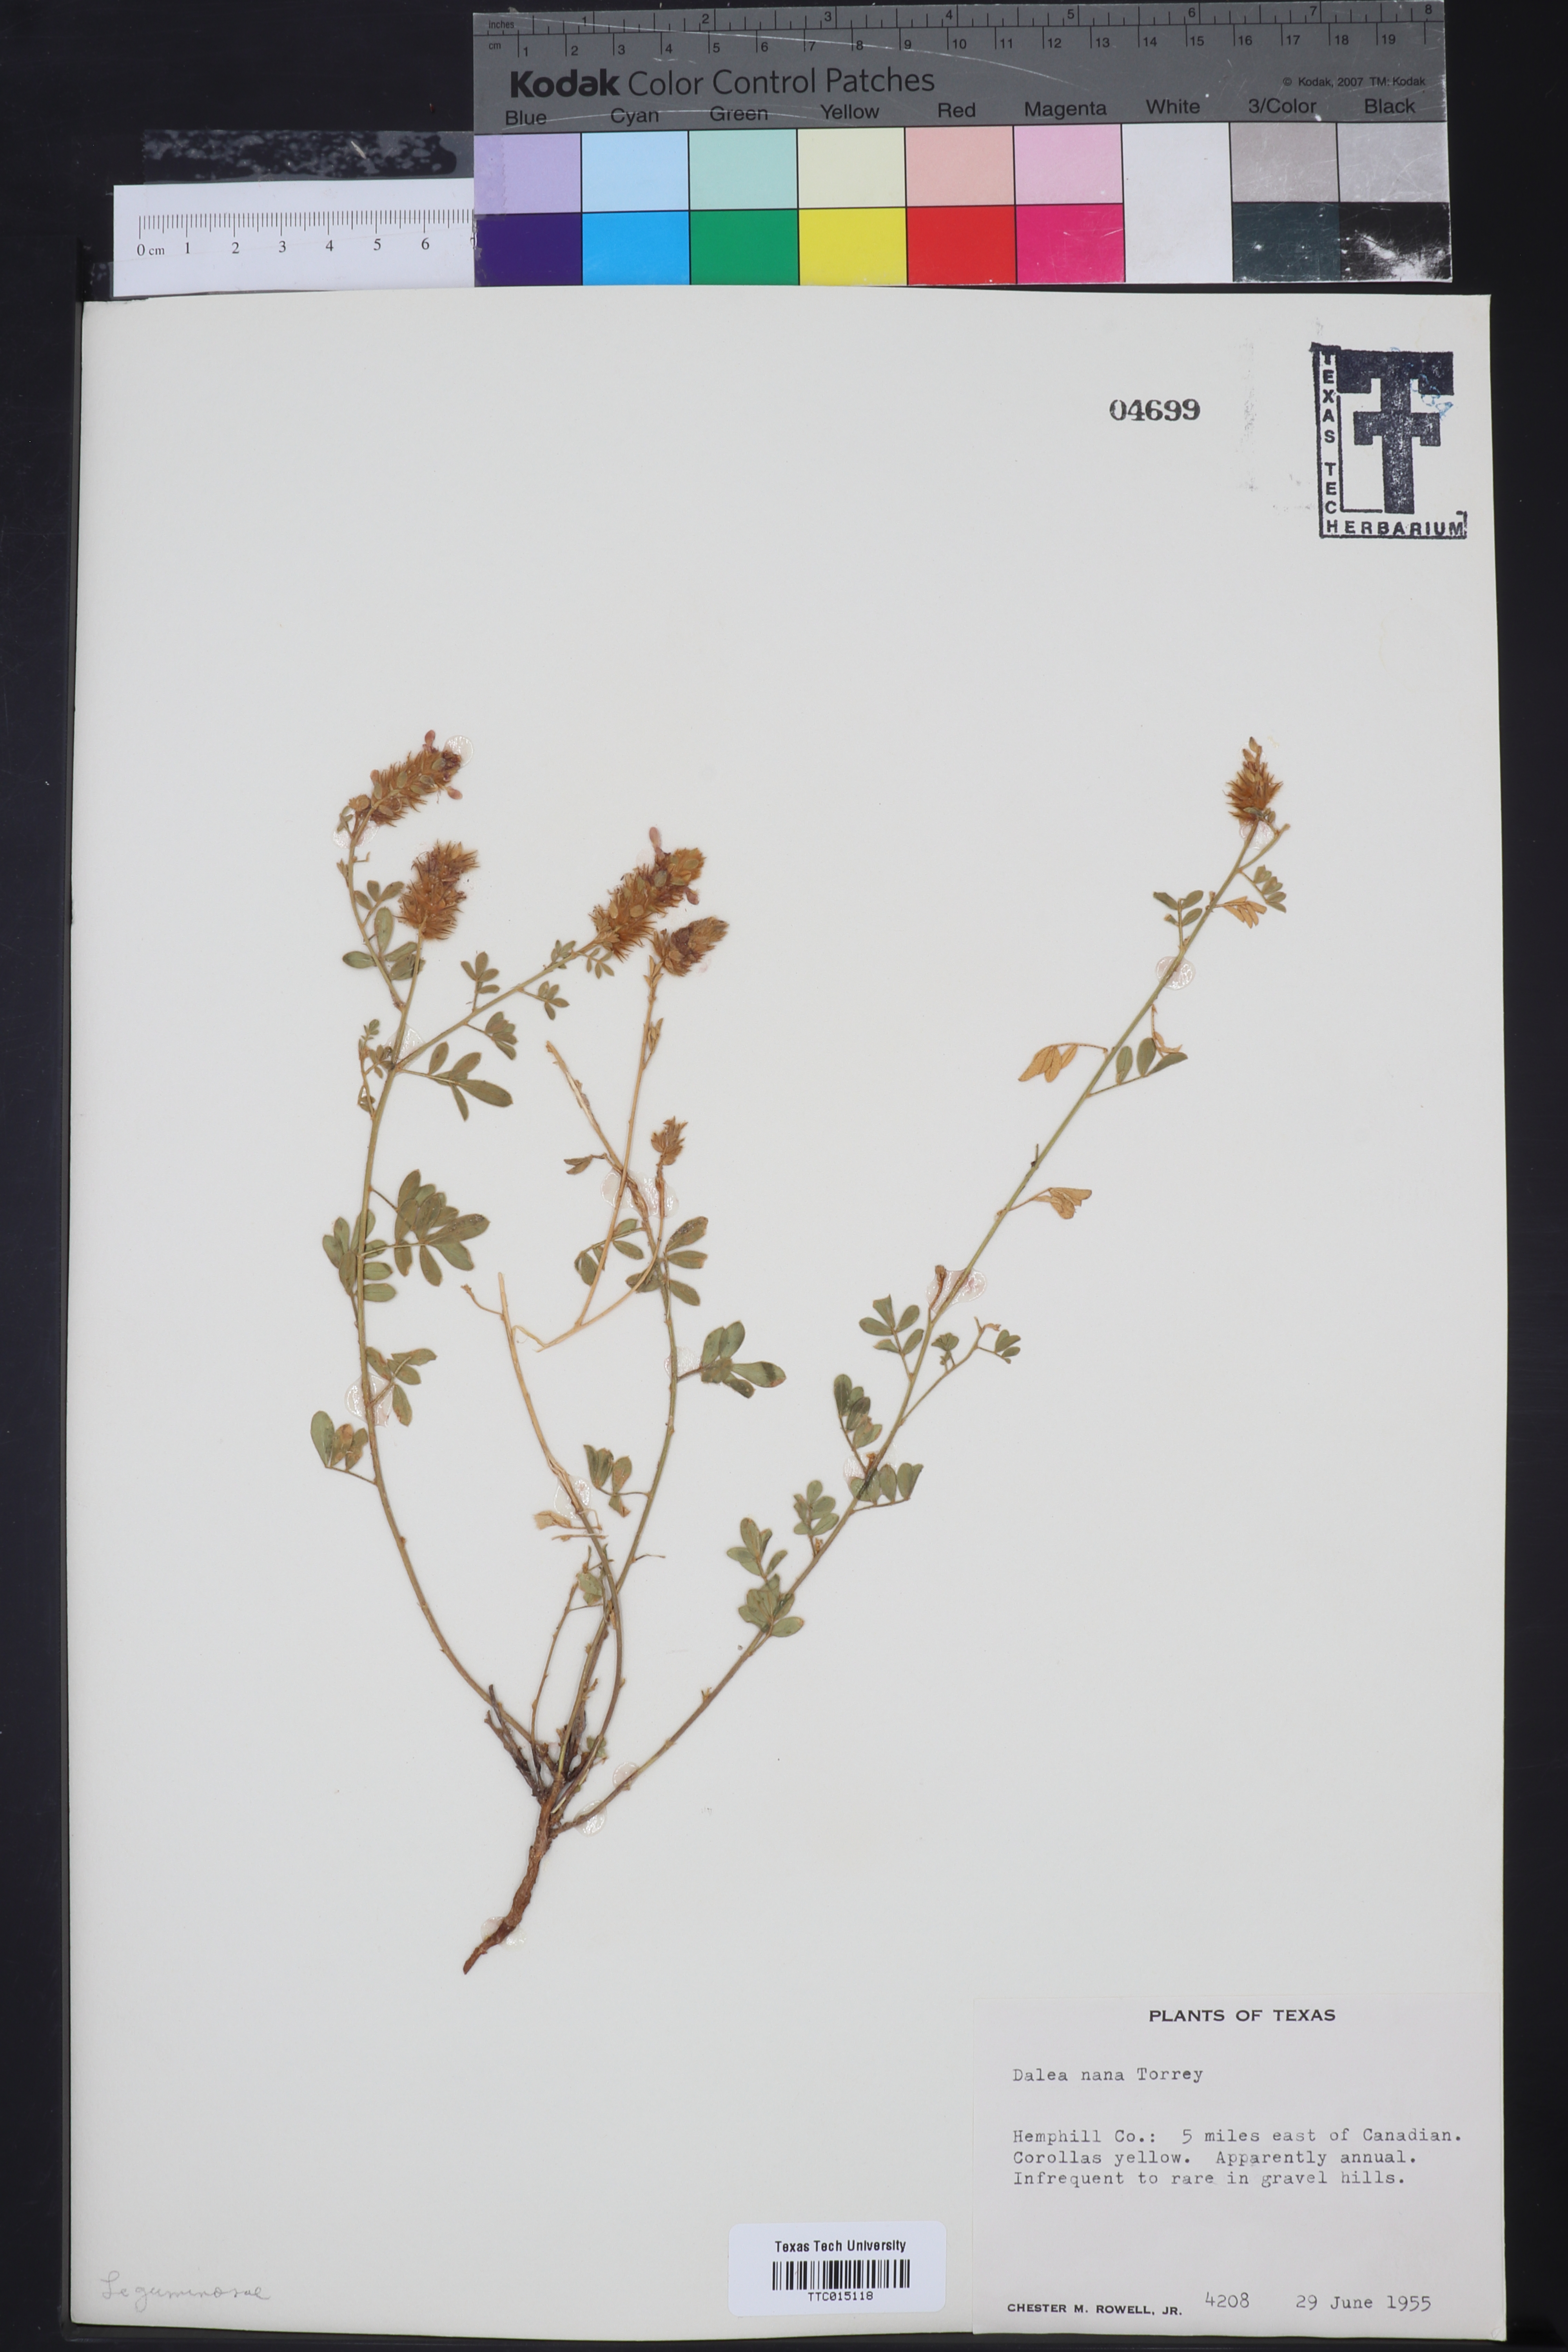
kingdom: Plantae
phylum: Tracheophyta
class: Magnoliopsida
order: Fabales
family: Fabaceae
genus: Dalea
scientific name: Dalea nana
